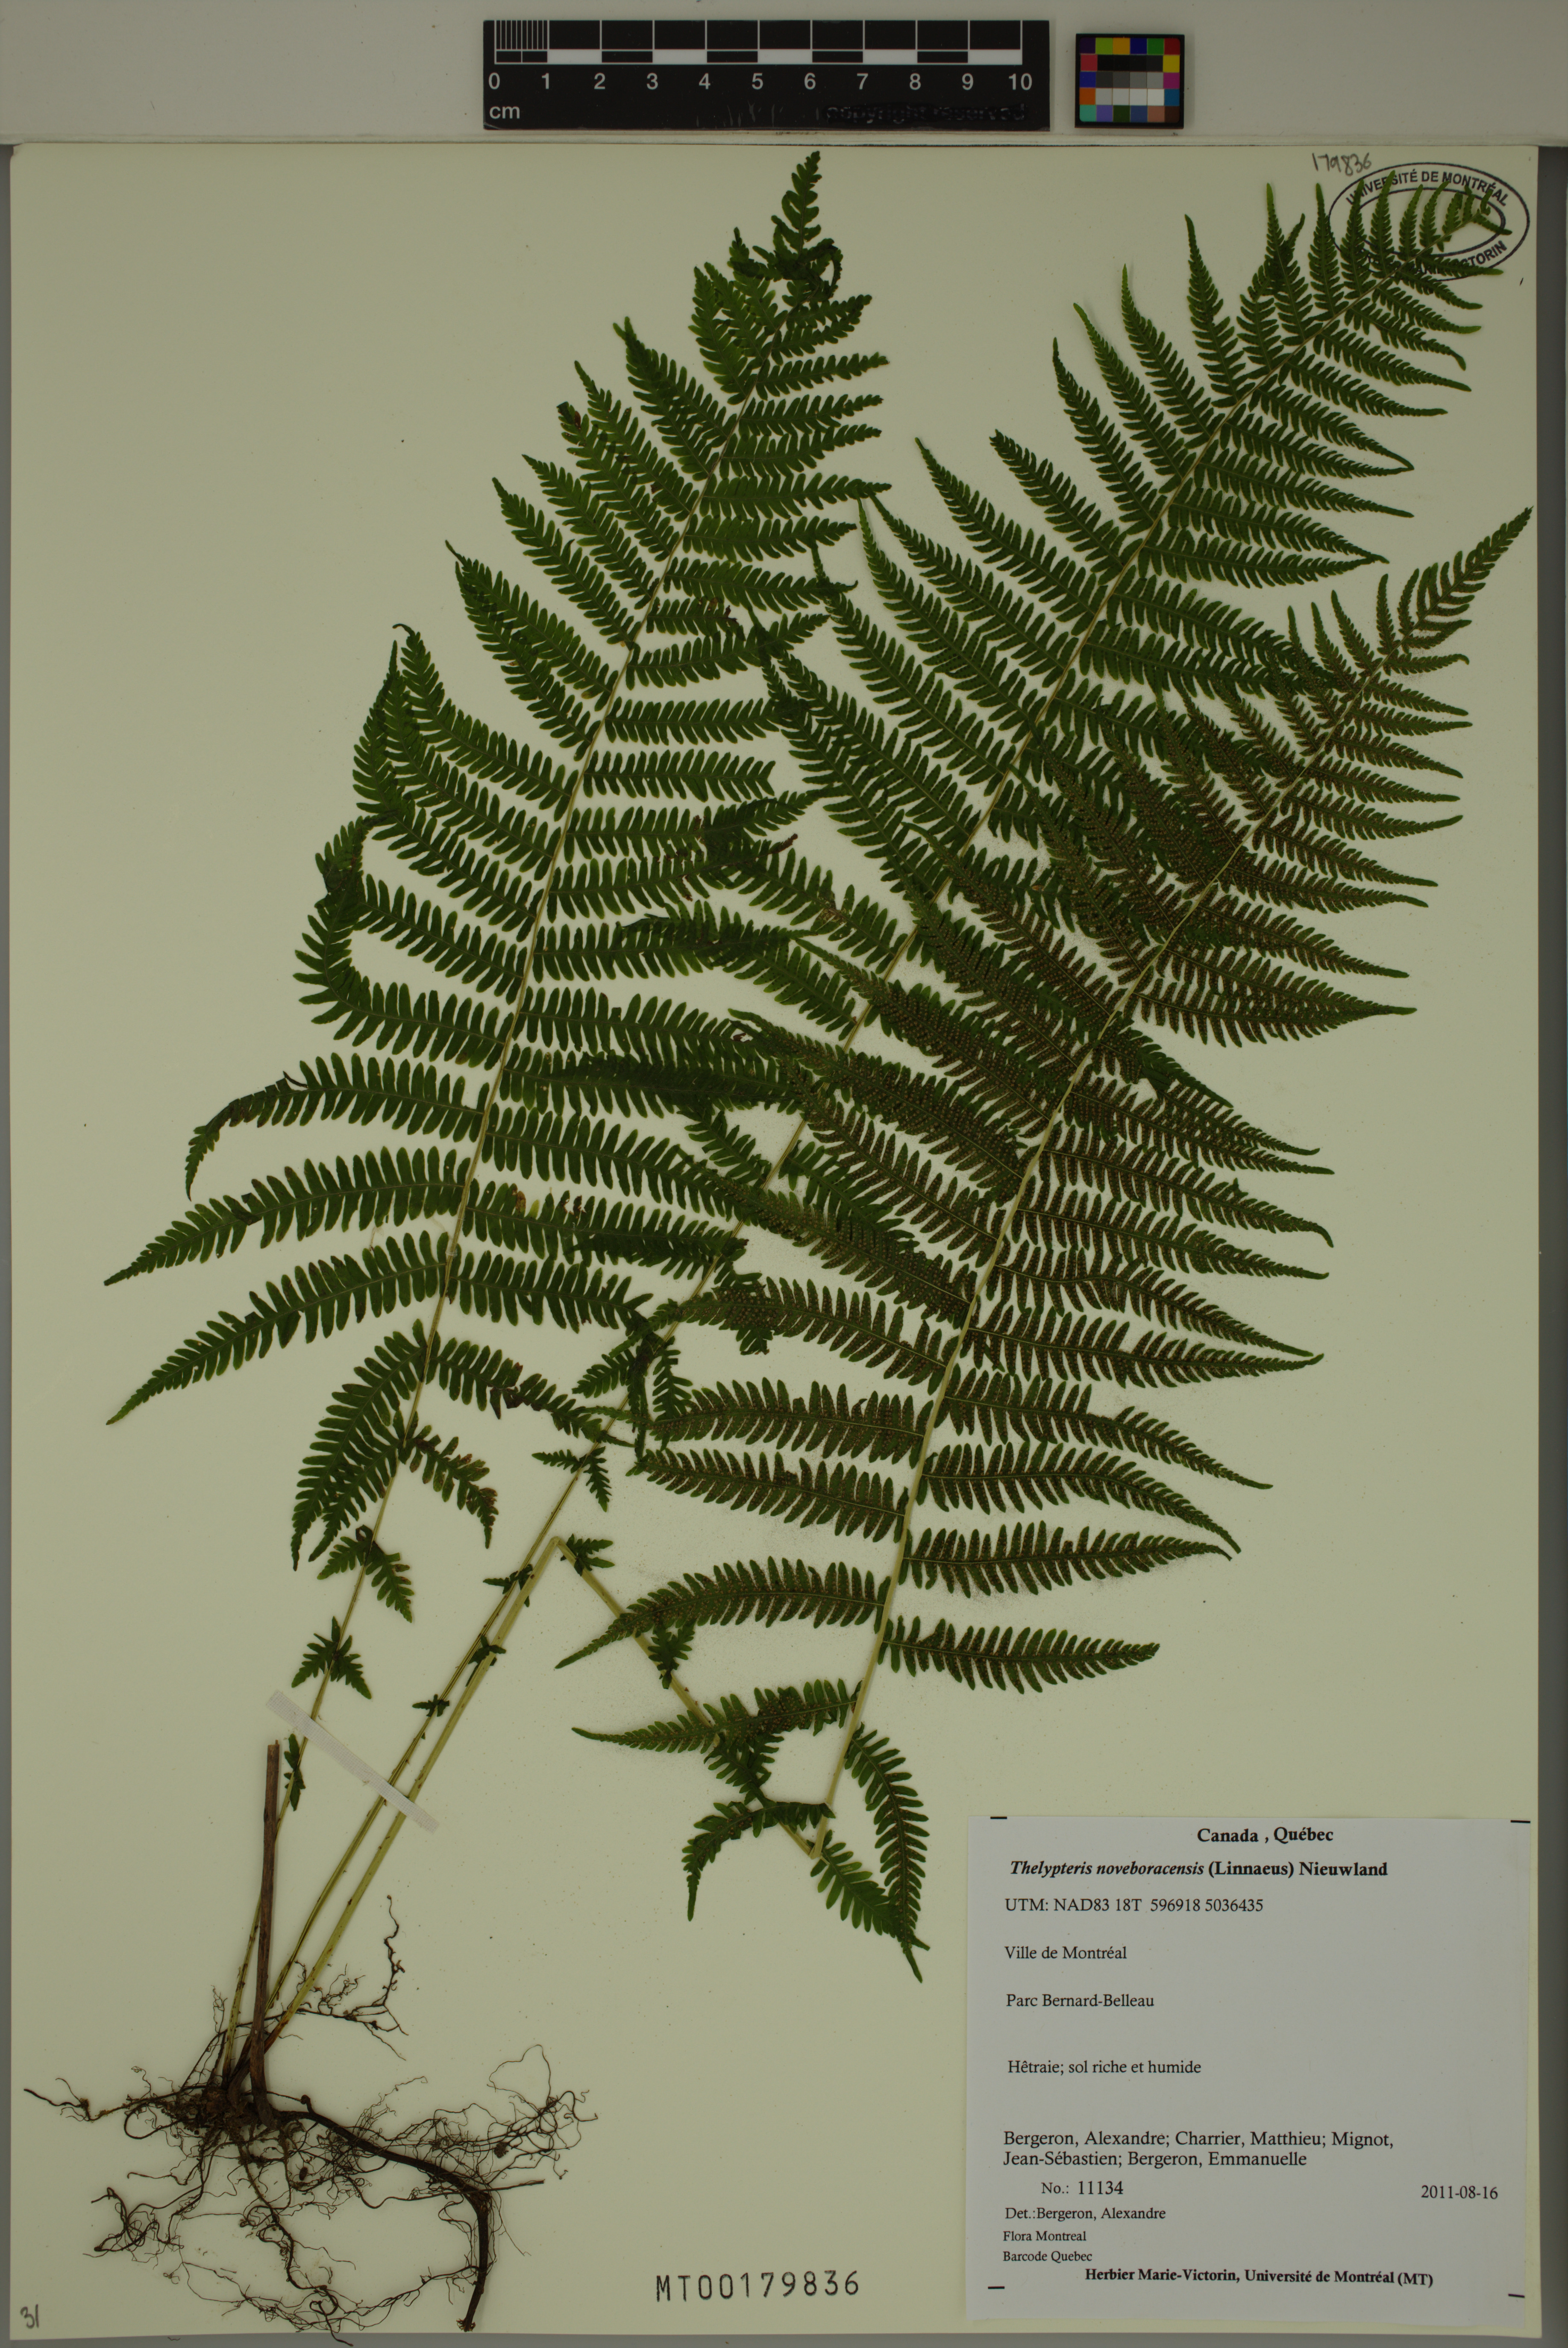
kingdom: Plantae
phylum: Tracheophyta
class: Polypodiopsida
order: Polypodiales
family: Thelypteridaceae
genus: Amauropelta
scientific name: Amauropelta noveboracensis
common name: New york fern
